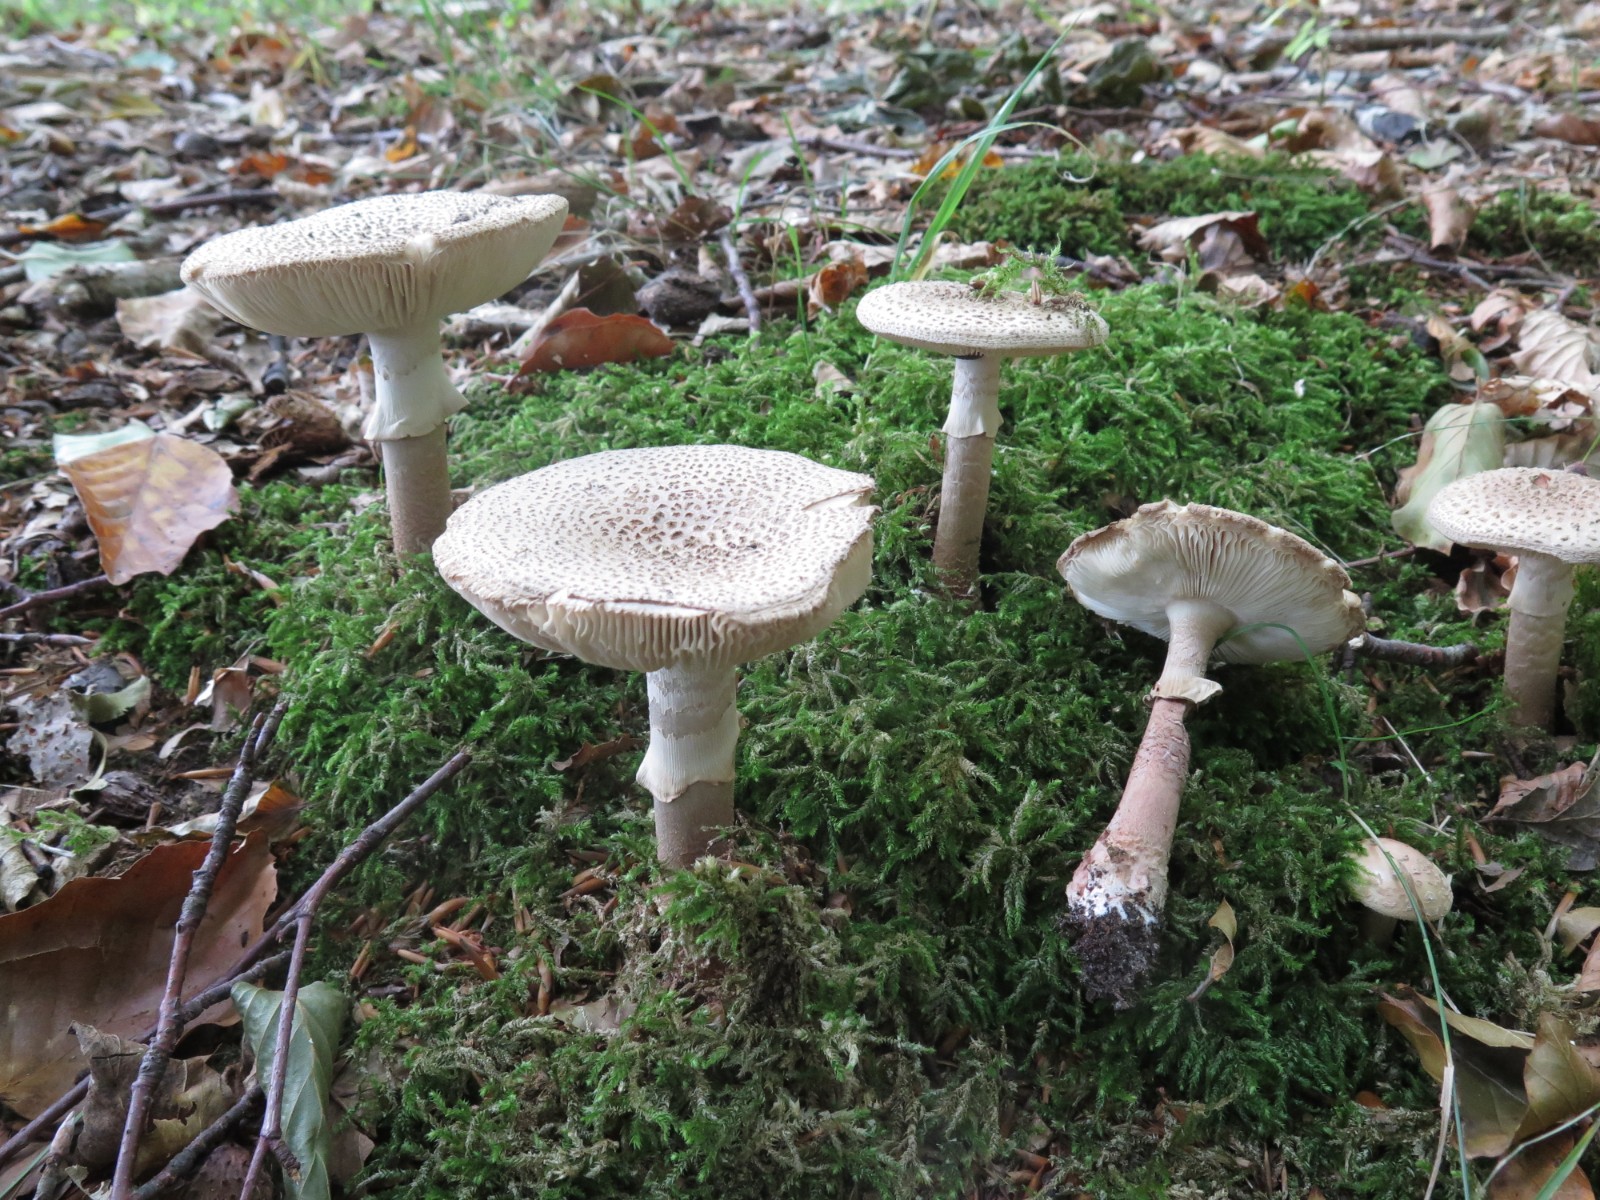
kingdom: Fungi
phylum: Basidiomycota
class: Agaricomycetes
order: Agaricales
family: Amanitaceae
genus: Amanita
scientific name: Amanita
